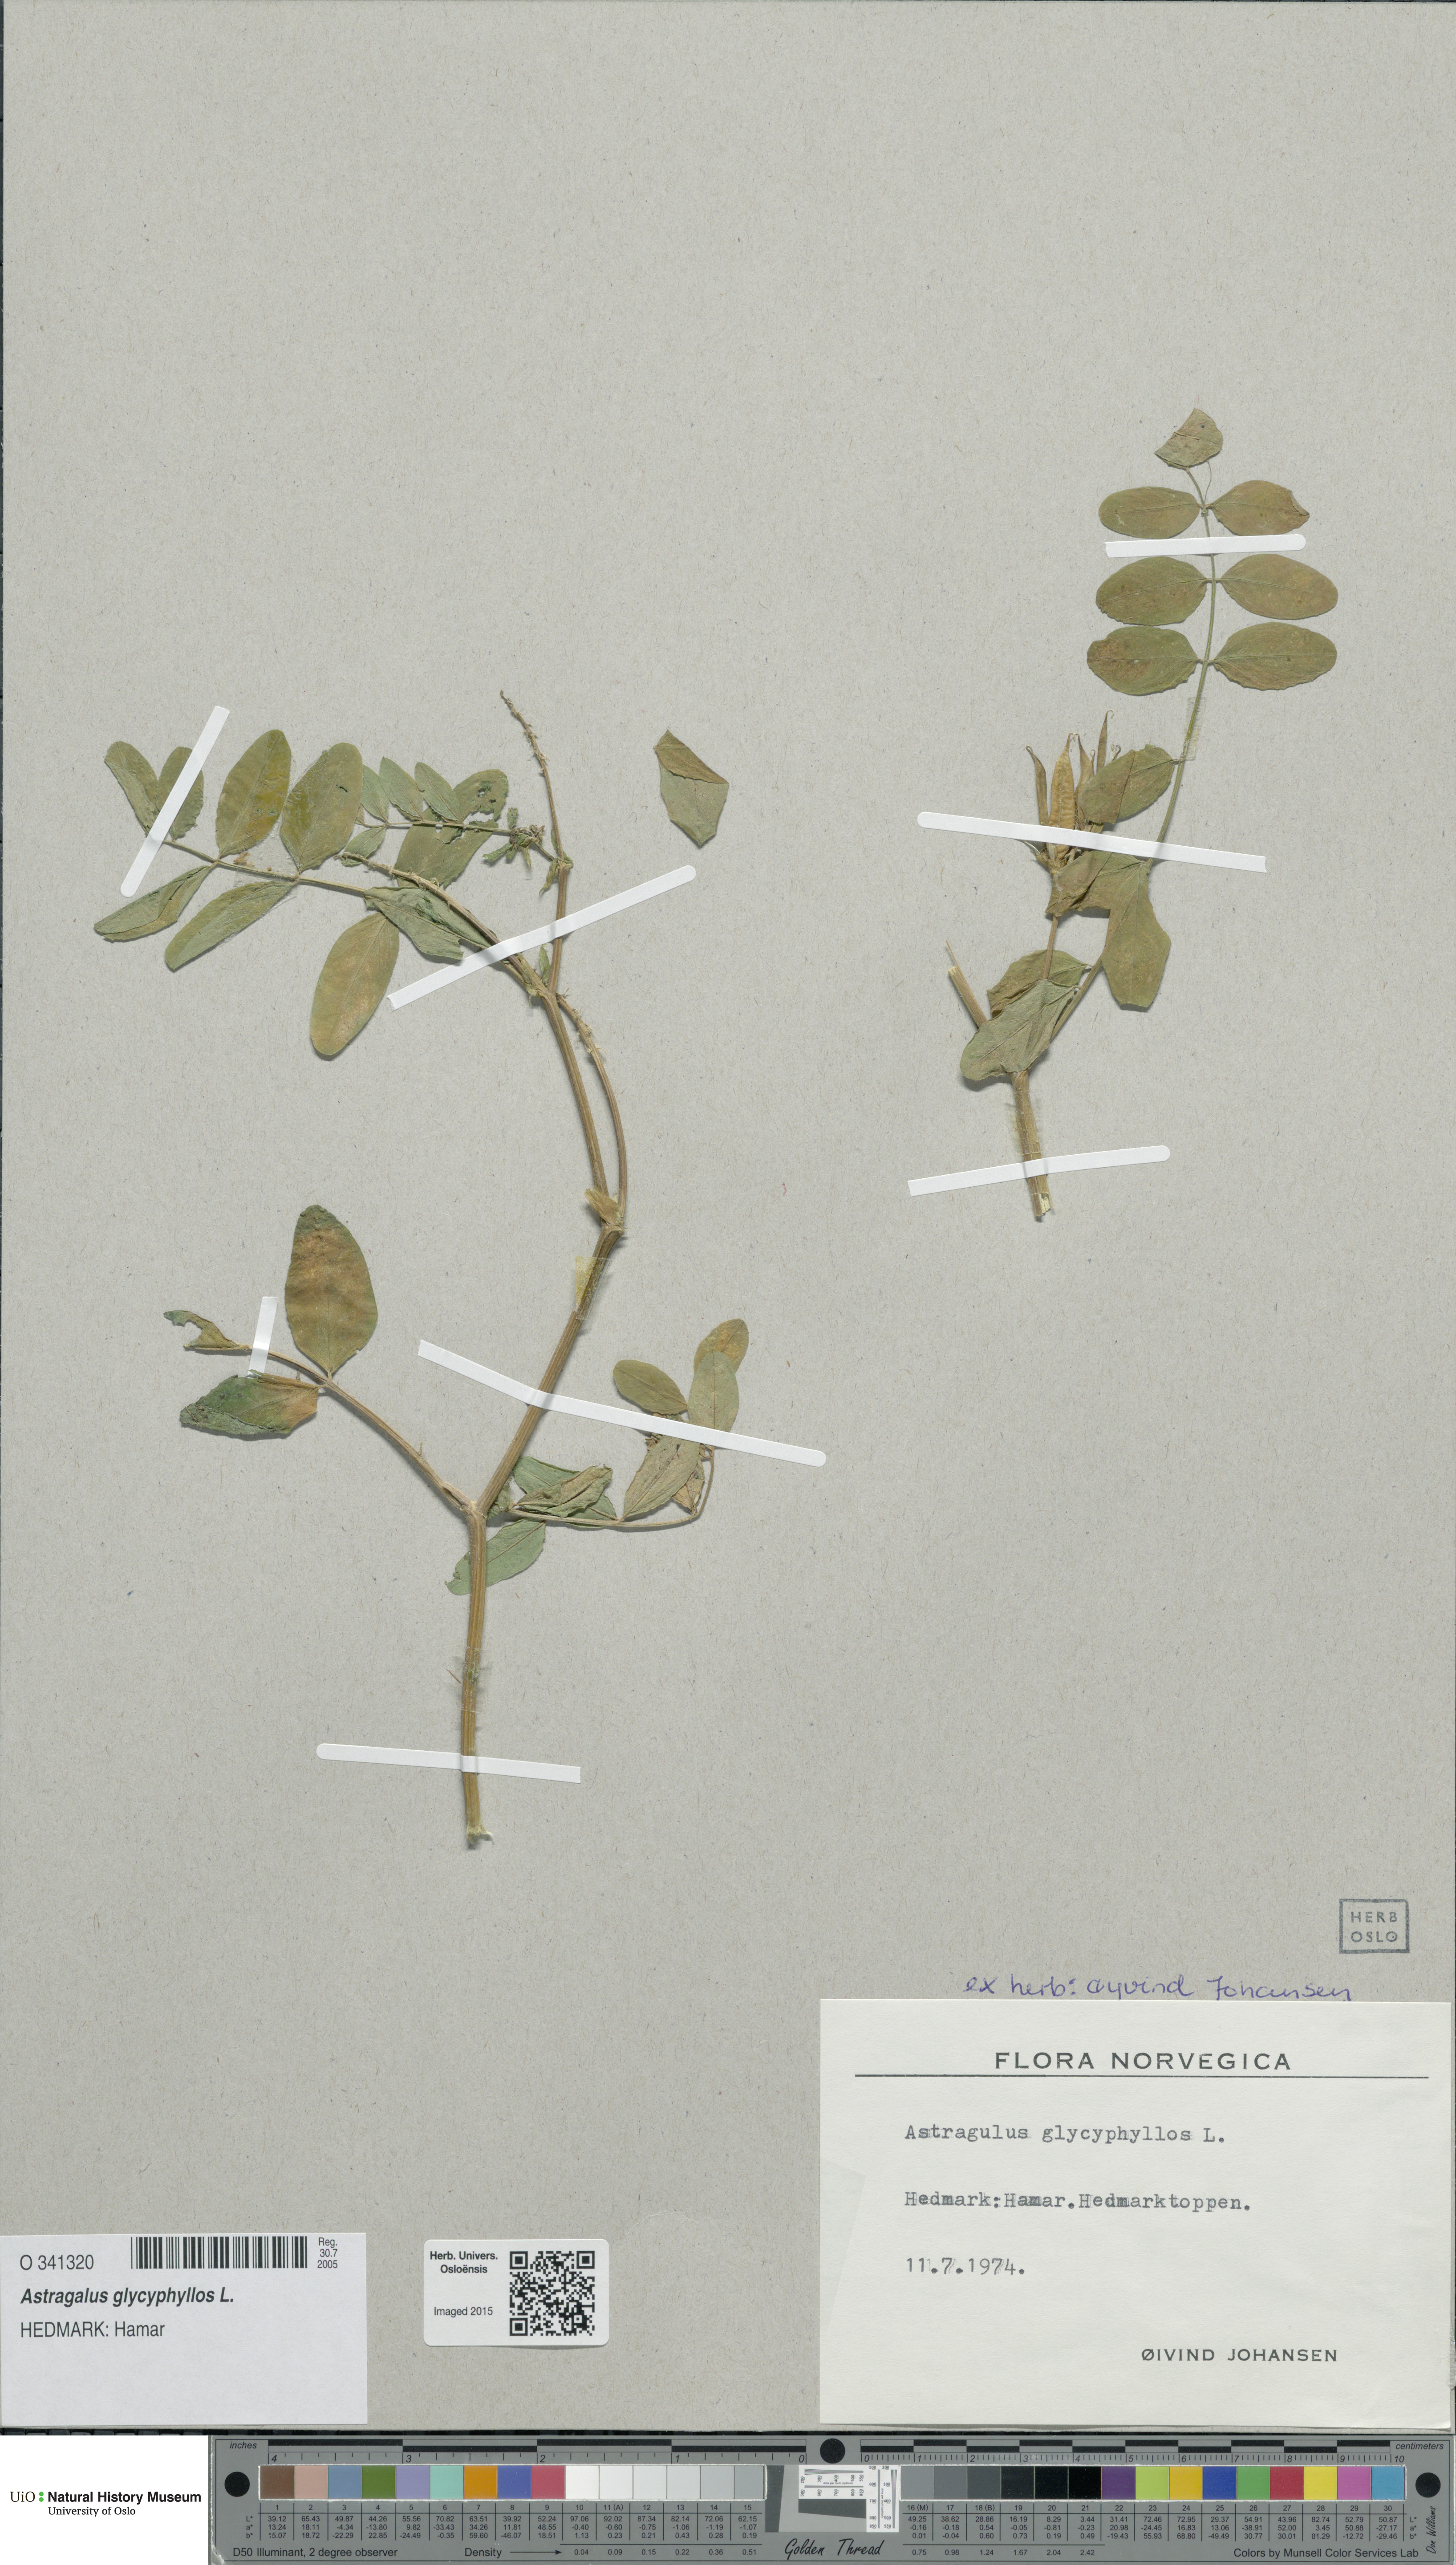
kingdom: Plantae
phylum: Tracheophyta
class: Magnoliopsida
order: Fabales
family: Fabaceae
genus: Astragalus
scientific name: Astragalus glycyphyllos
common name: Wild liquorice
